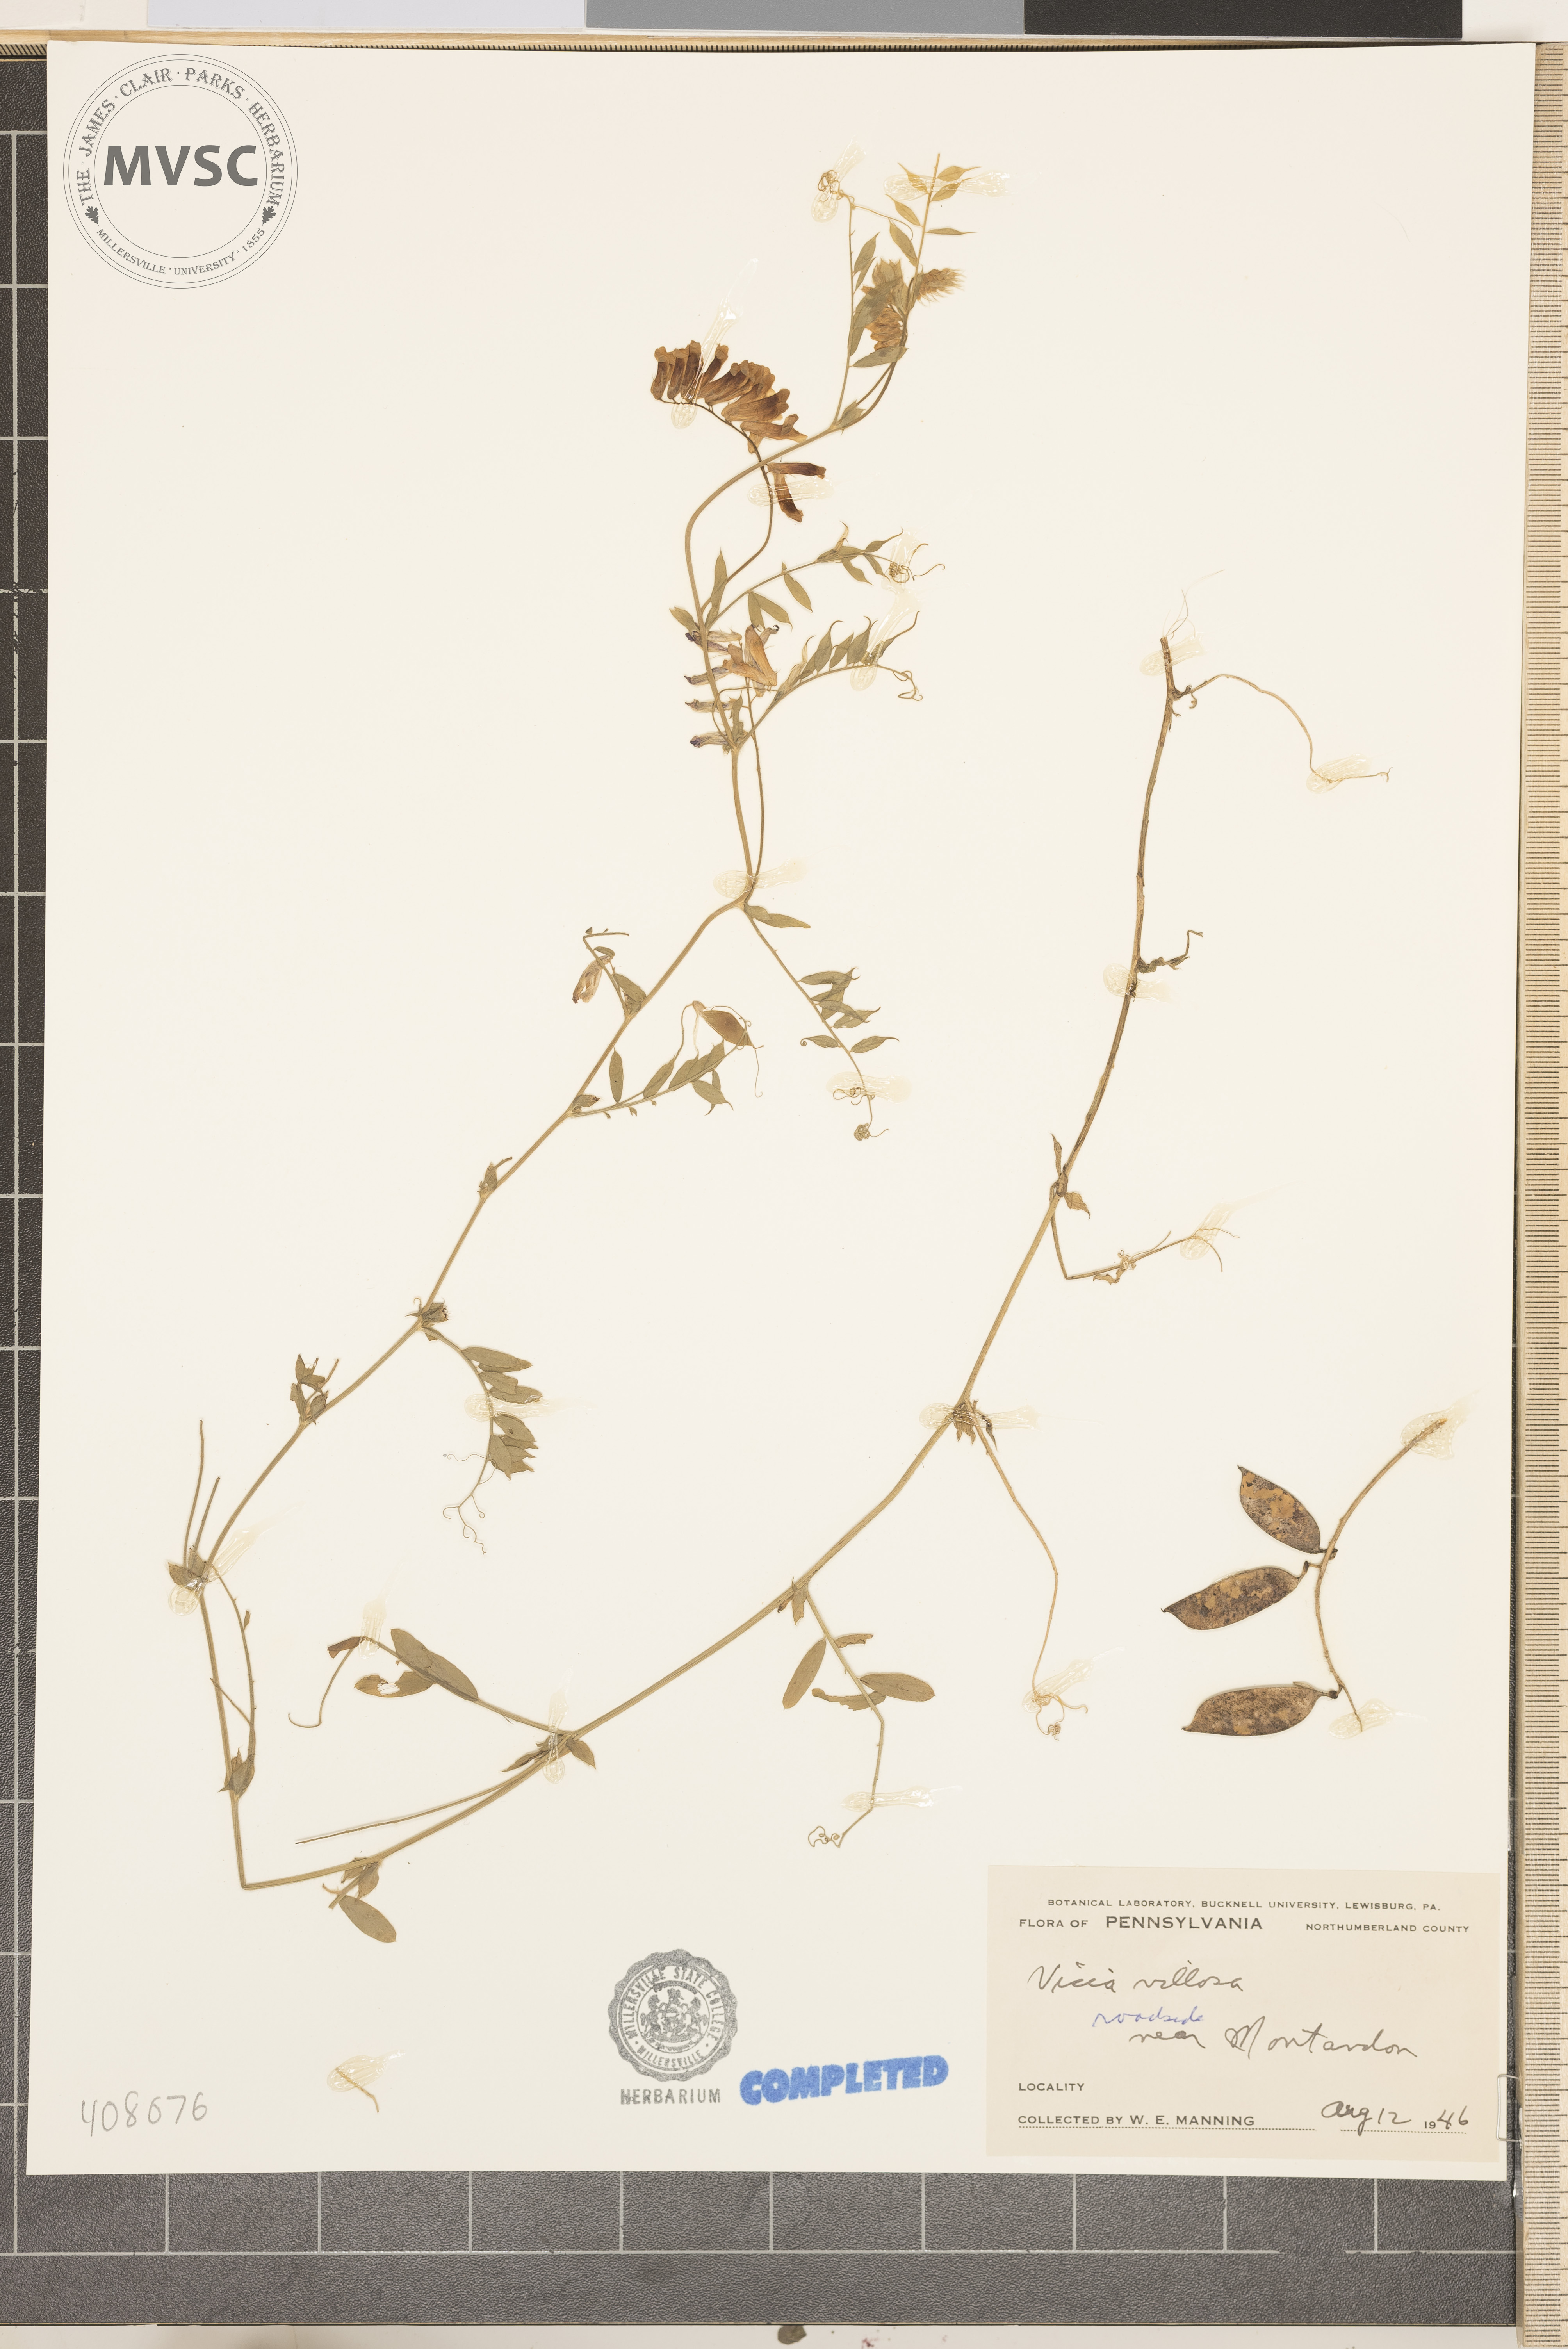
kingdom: Plantae
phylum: Tracheophyta
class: Magnoliopsida
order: Fabales
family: Fabaceae
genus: Vicia
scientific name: Vicia villosa
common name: Fodder vetch
